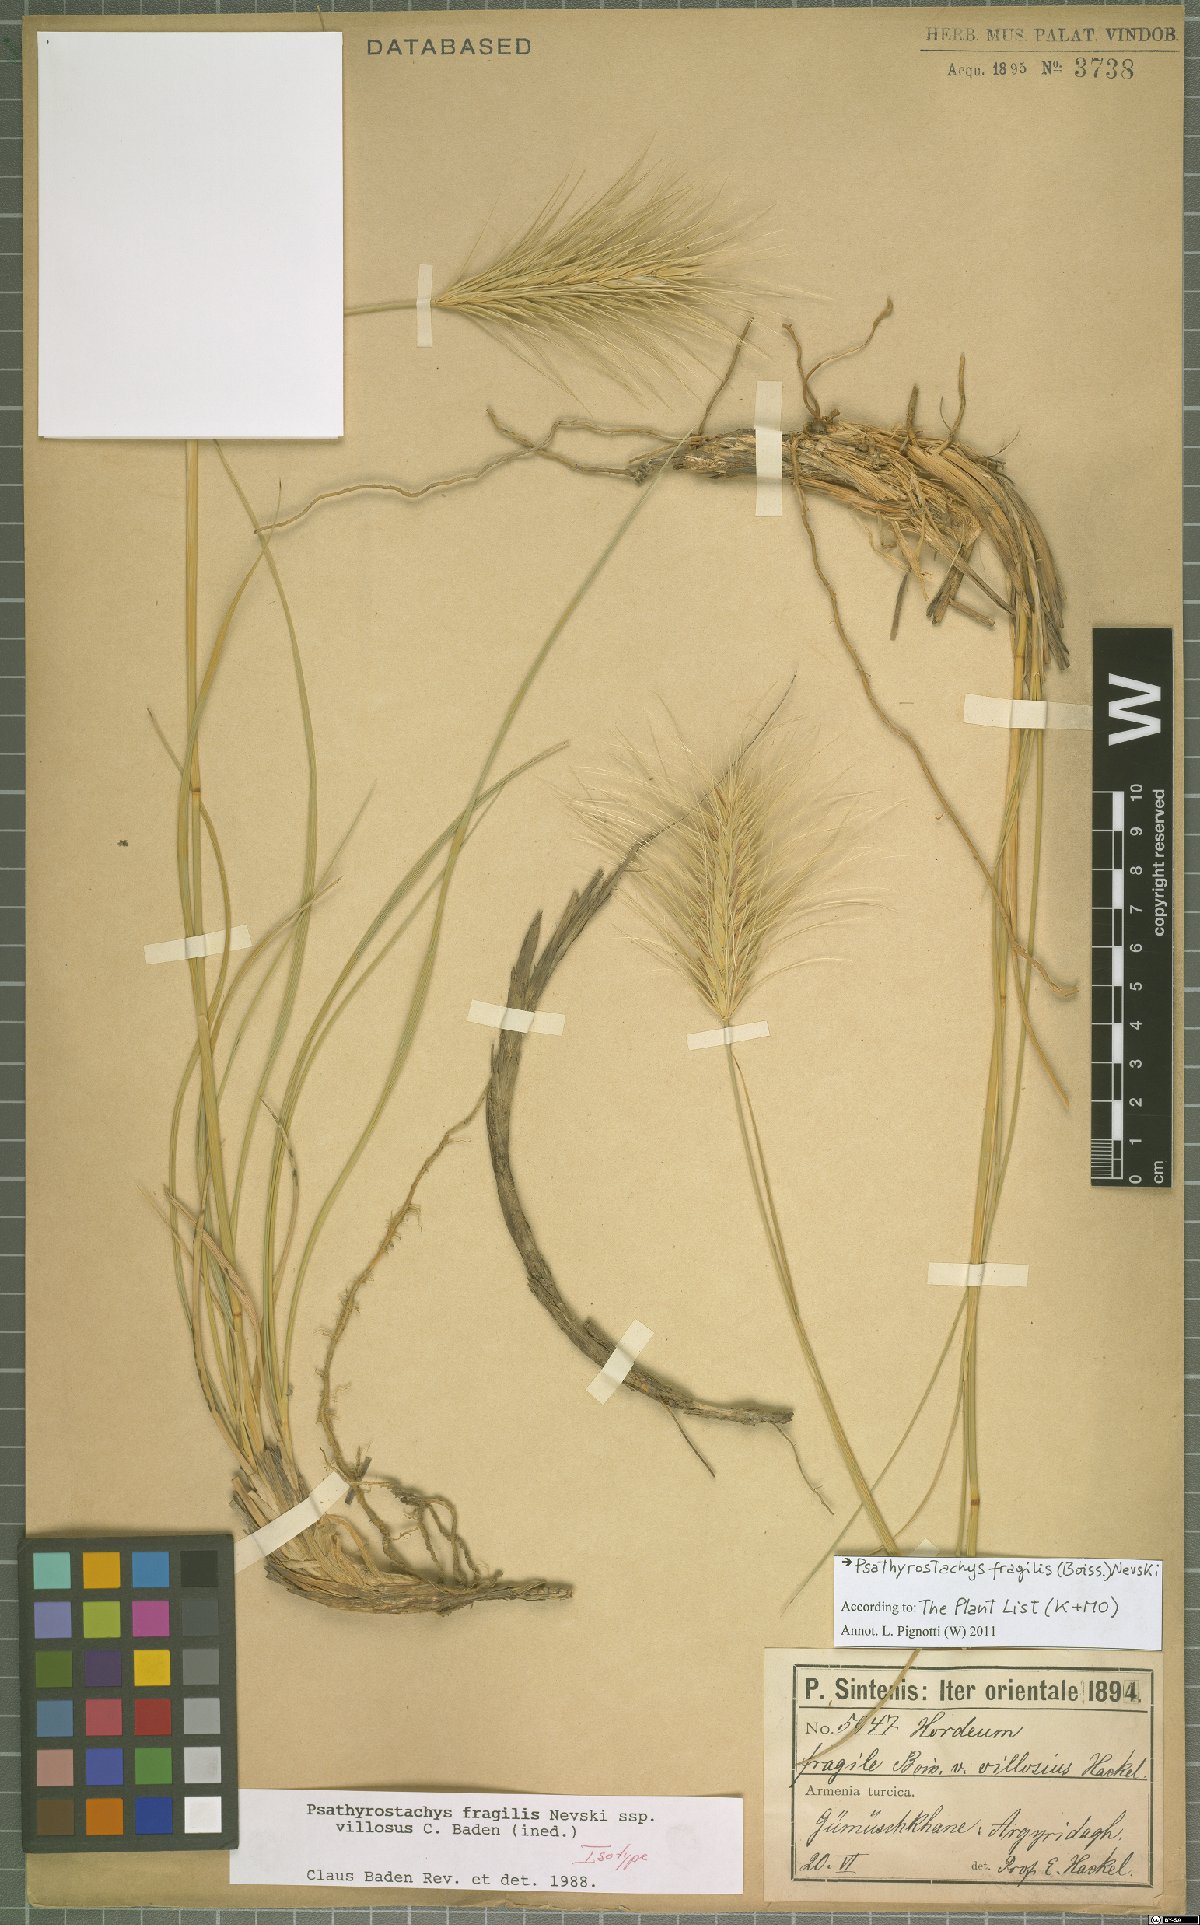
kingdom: Plantae
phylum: Tracheophyta
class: Liliopsida
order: Poales
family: Poaceae
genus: Psathyrostachys
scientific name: Psathyrostachys fragilis
